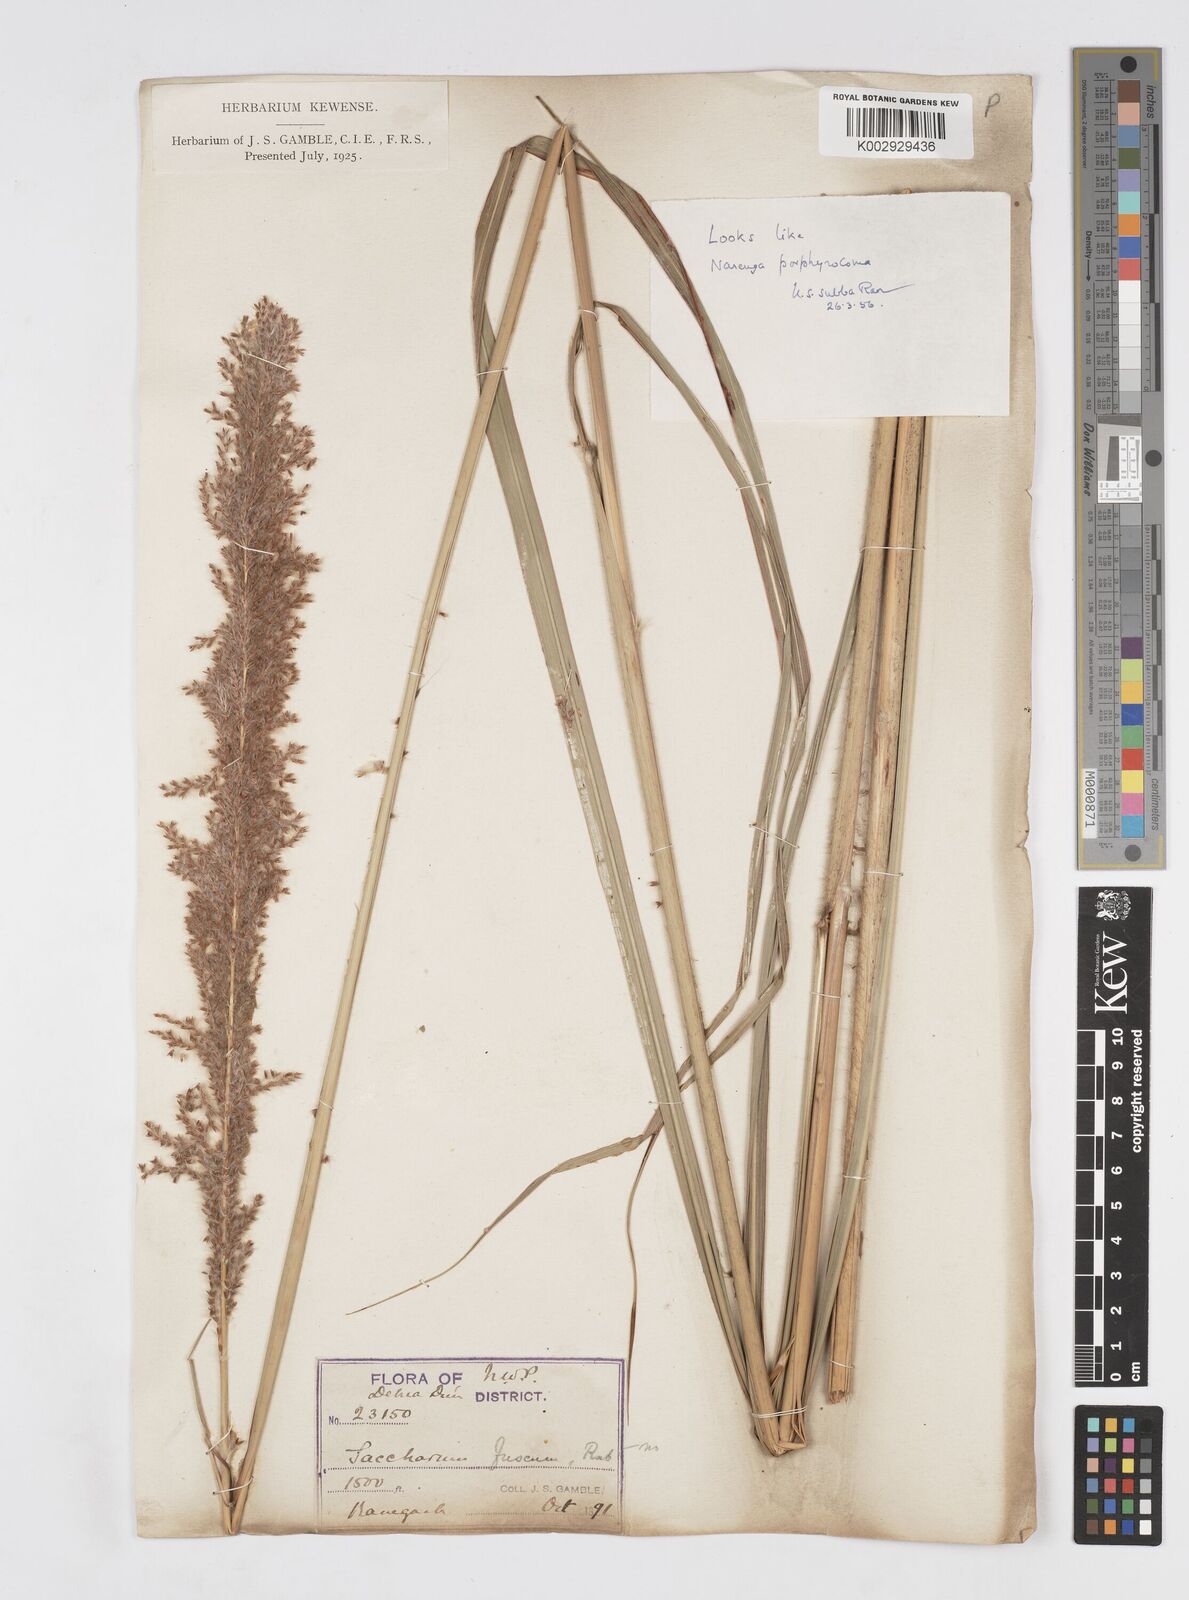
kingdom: Plantae
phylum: Tracheophyta
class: Liliopsida
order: Poales
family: Poaceae
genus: Narenga
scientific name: Narenga porphyrocoma
